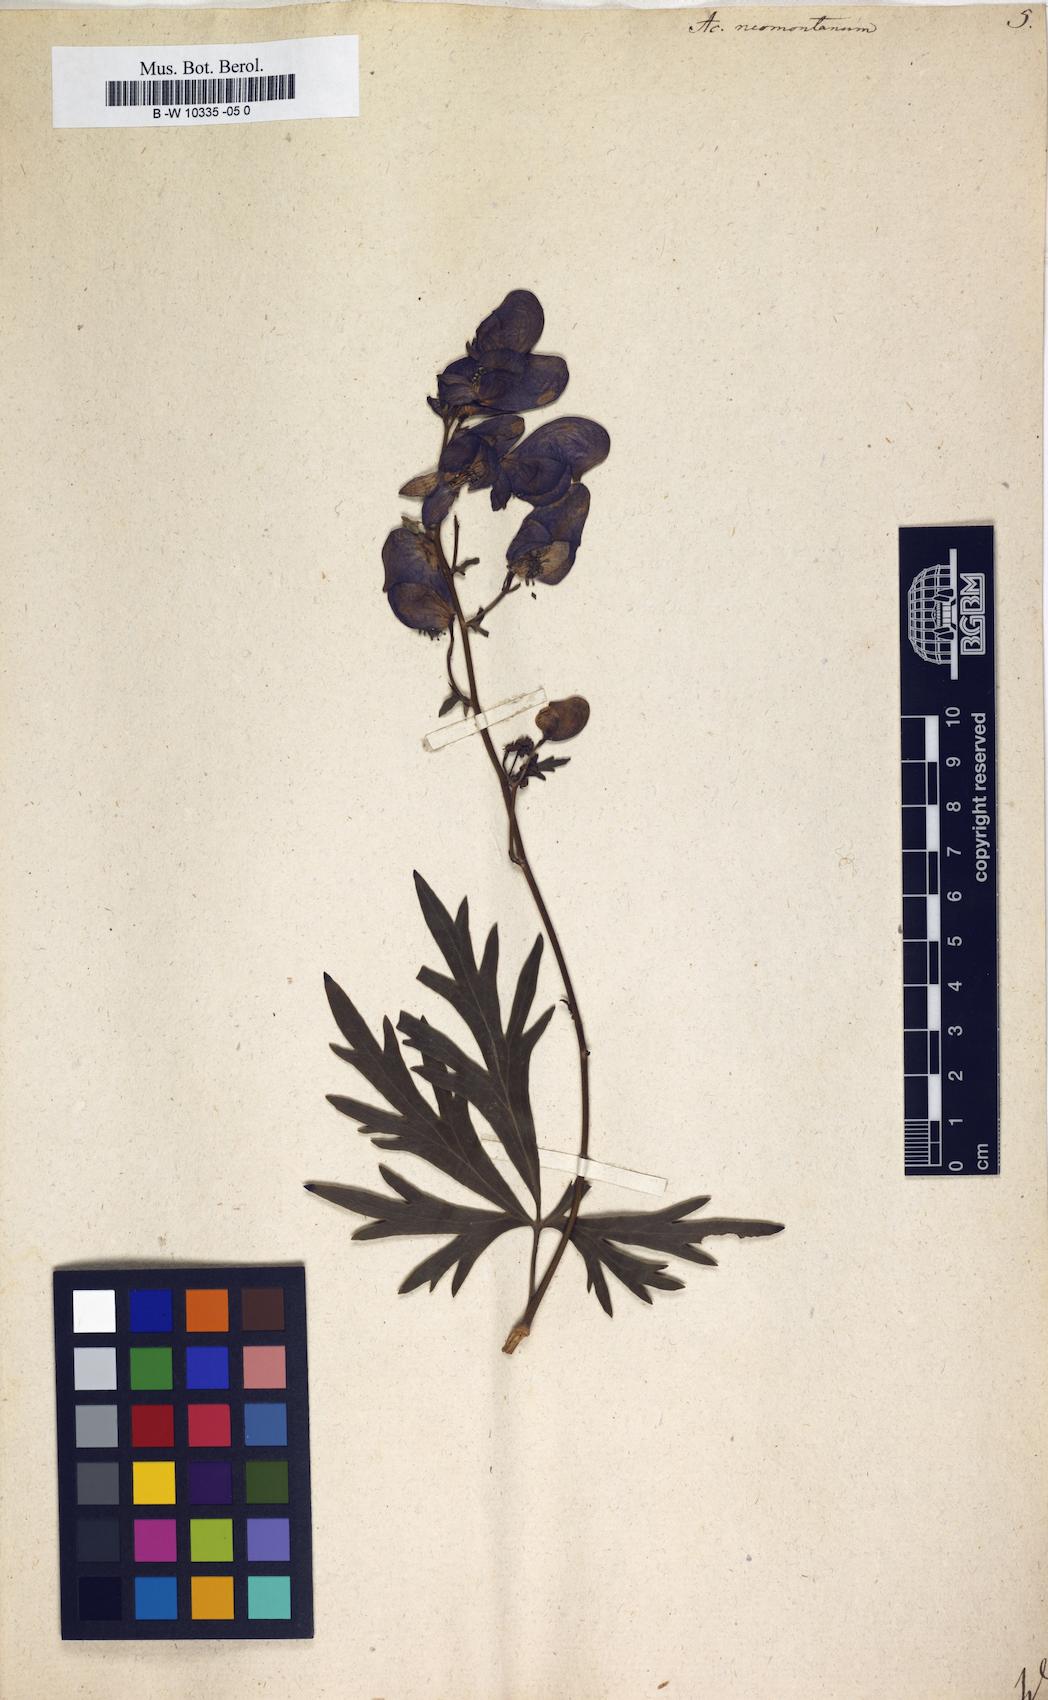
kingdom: Plantae
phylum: Tracheophyta
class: Magnoliopsida
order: Ranunculales
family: Ranunculaceae
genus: Aconitum
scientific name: Aconitum napellus
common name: Garden monkshood
